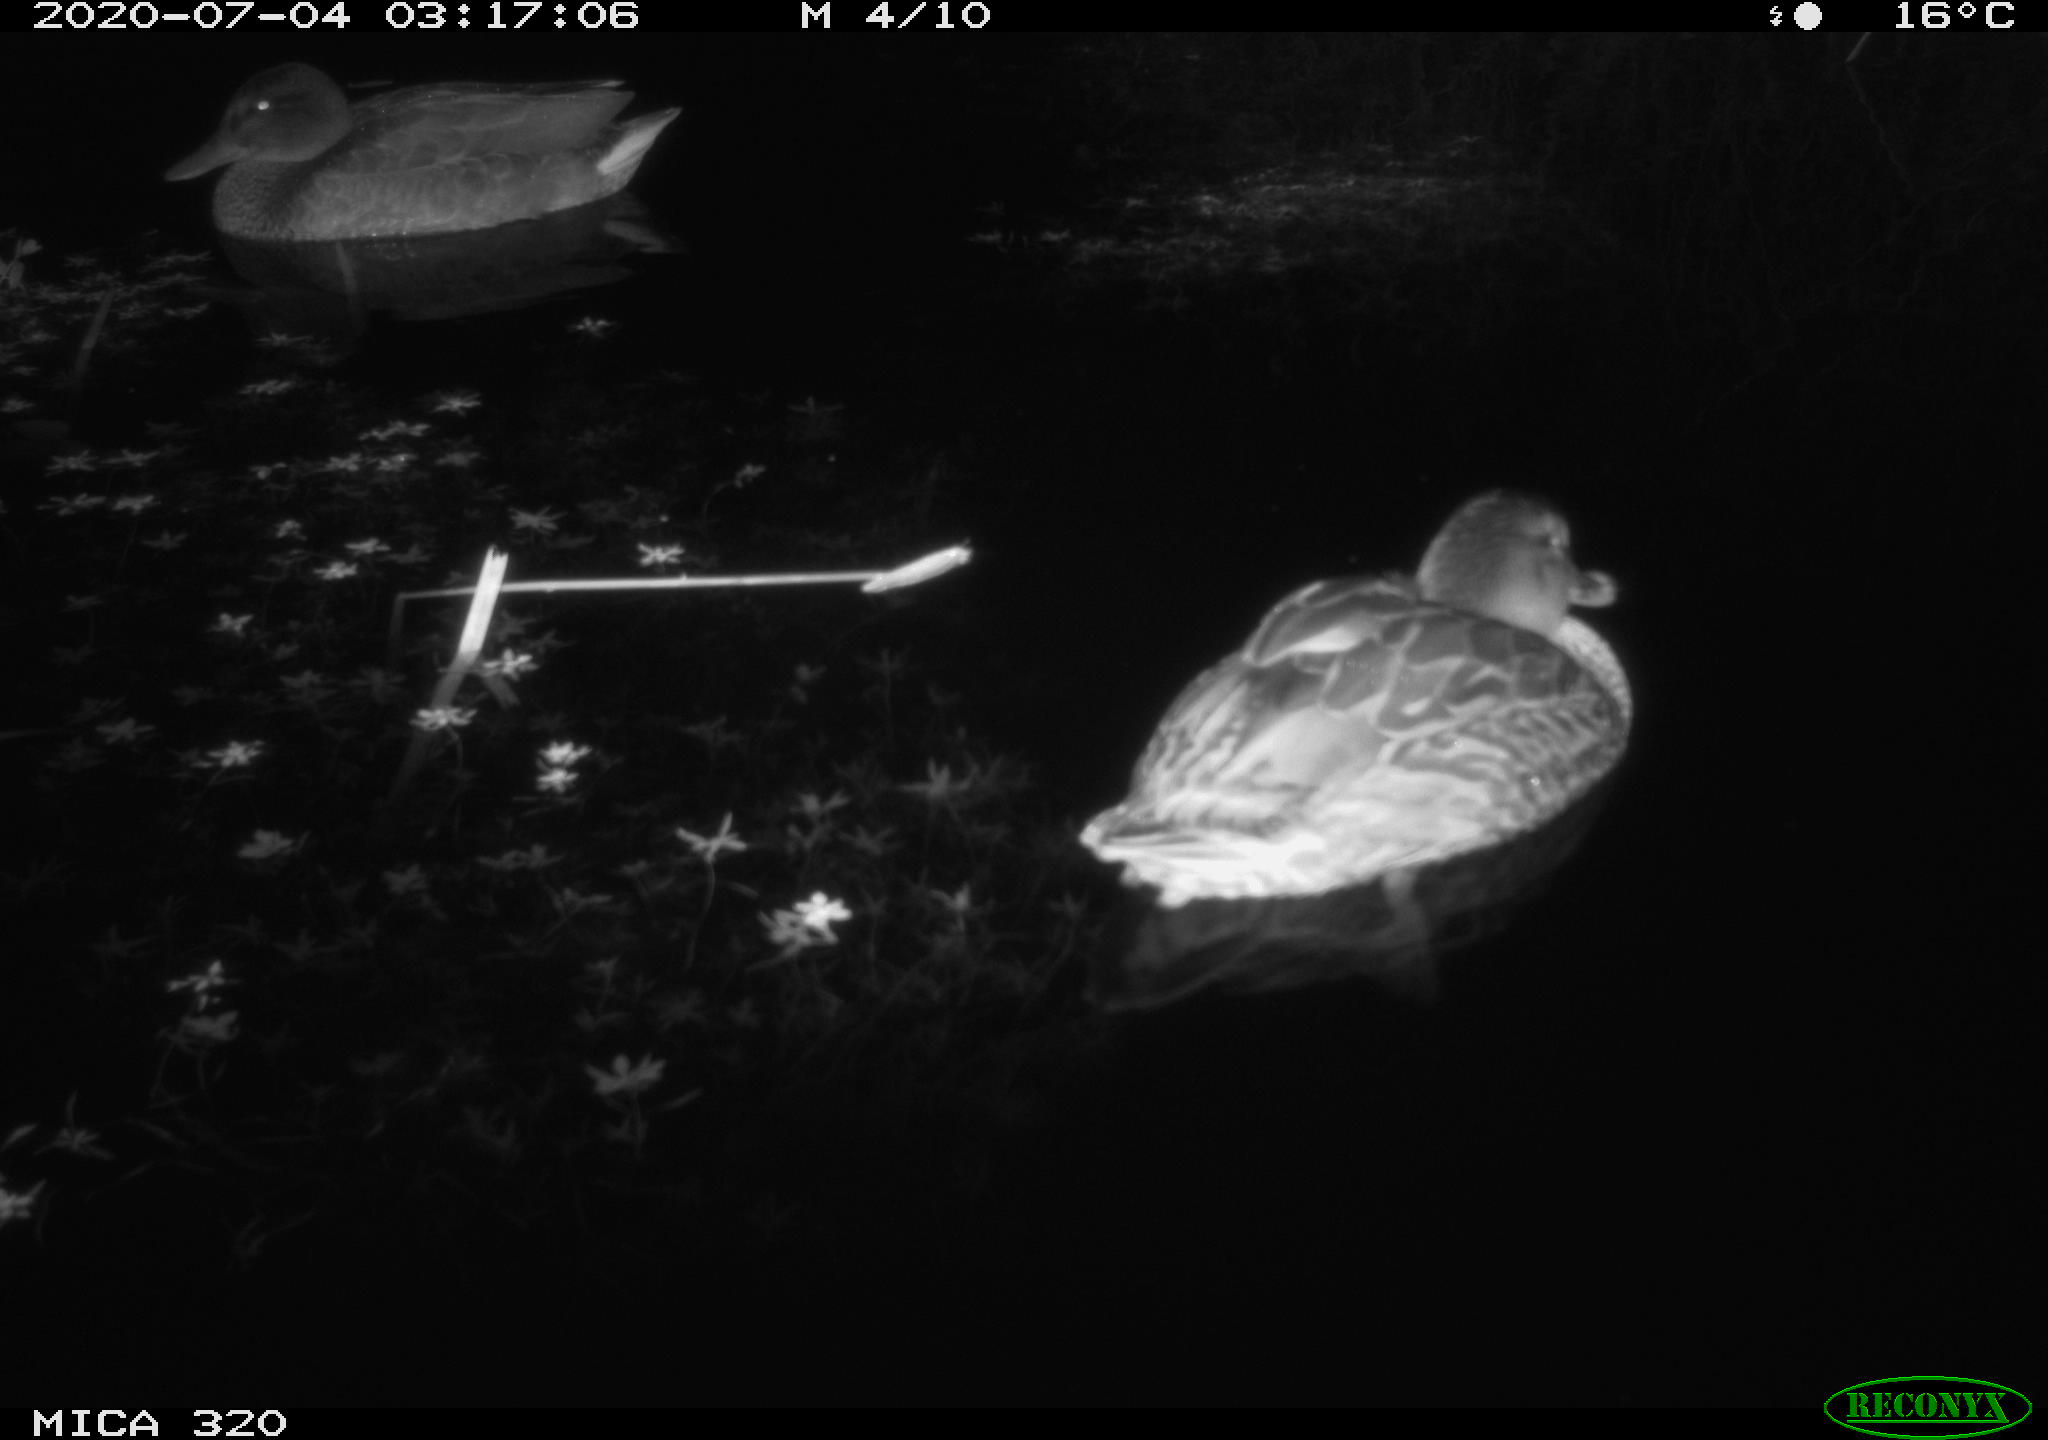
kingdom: Animalia
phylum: Chordata
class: Aves
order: Anseriformes
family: Anatidae
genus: Anas
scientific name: Anas platyrhynchos
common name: Mallard
